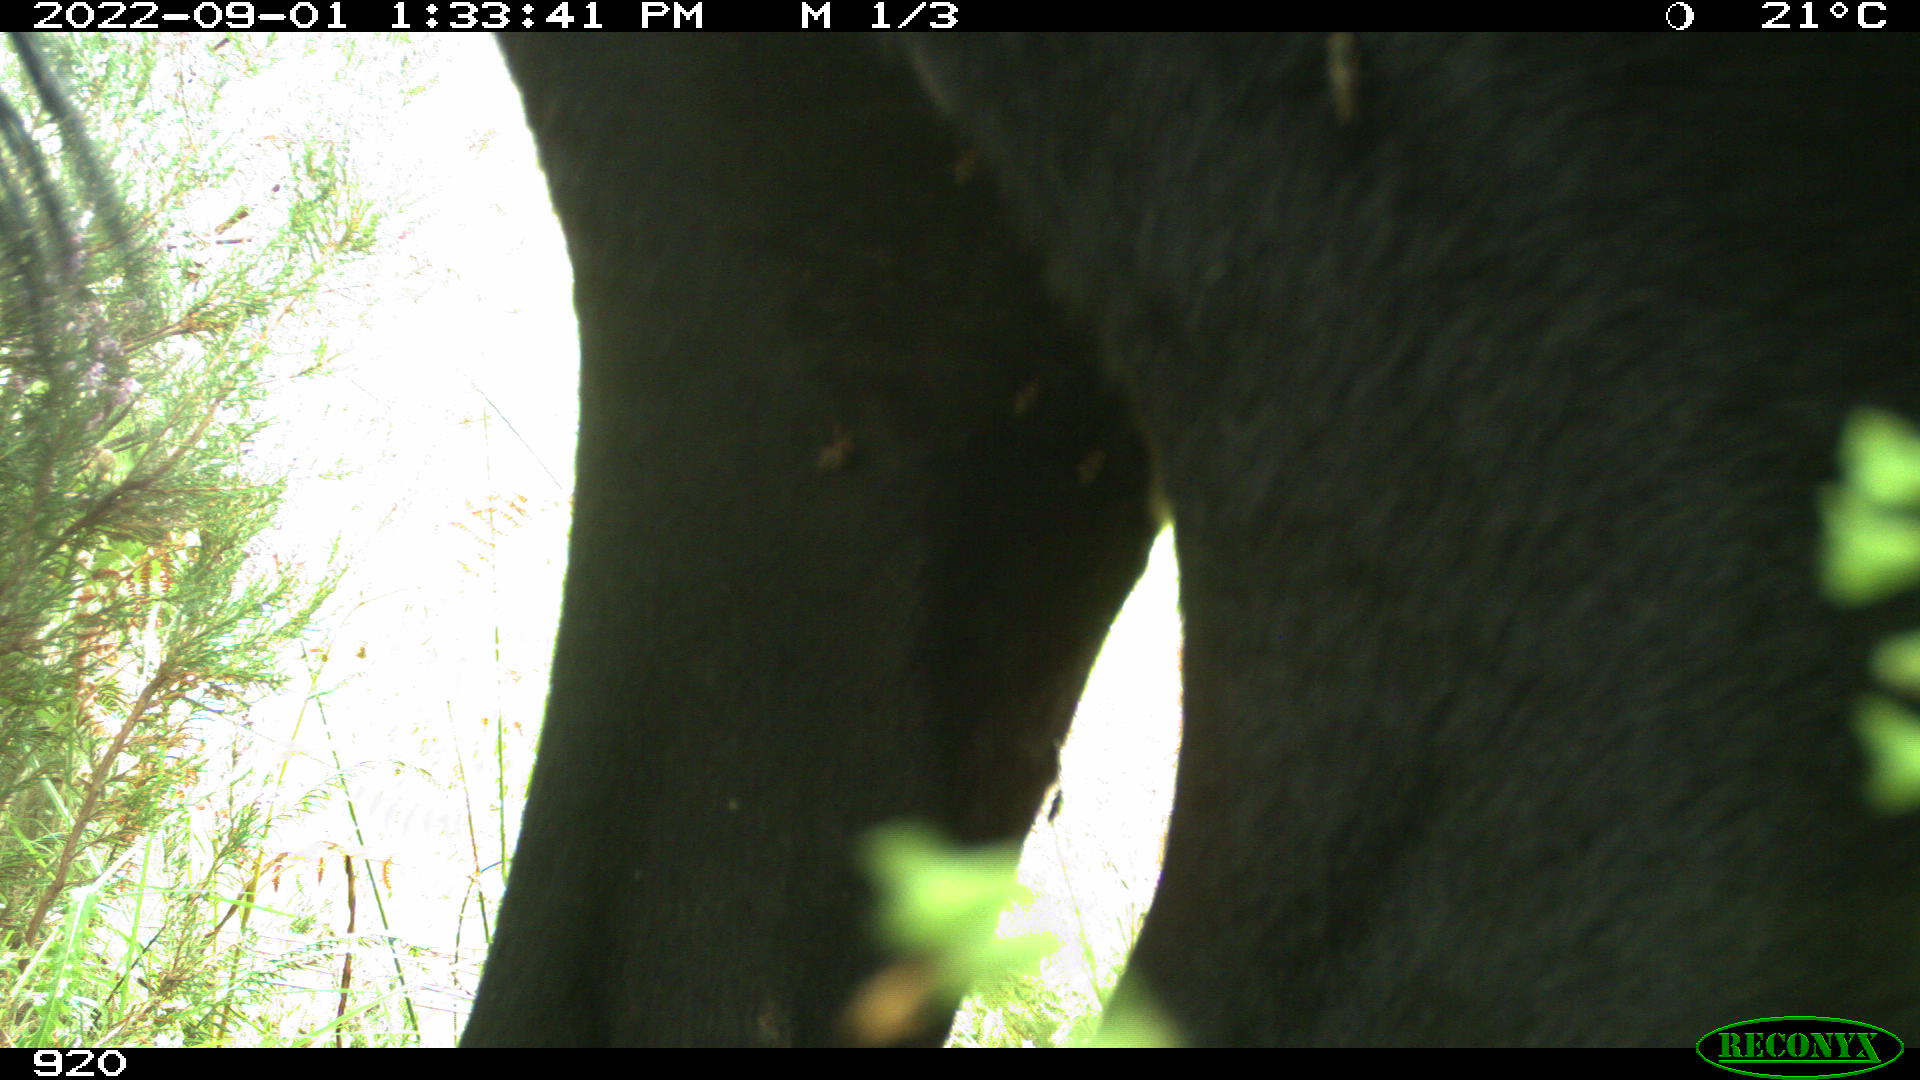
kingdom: Animalia
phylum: Chordata
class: Mammalia
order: Perissodactyla
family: Equidae
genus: Equus
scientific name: Equus caballus
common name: Horse
